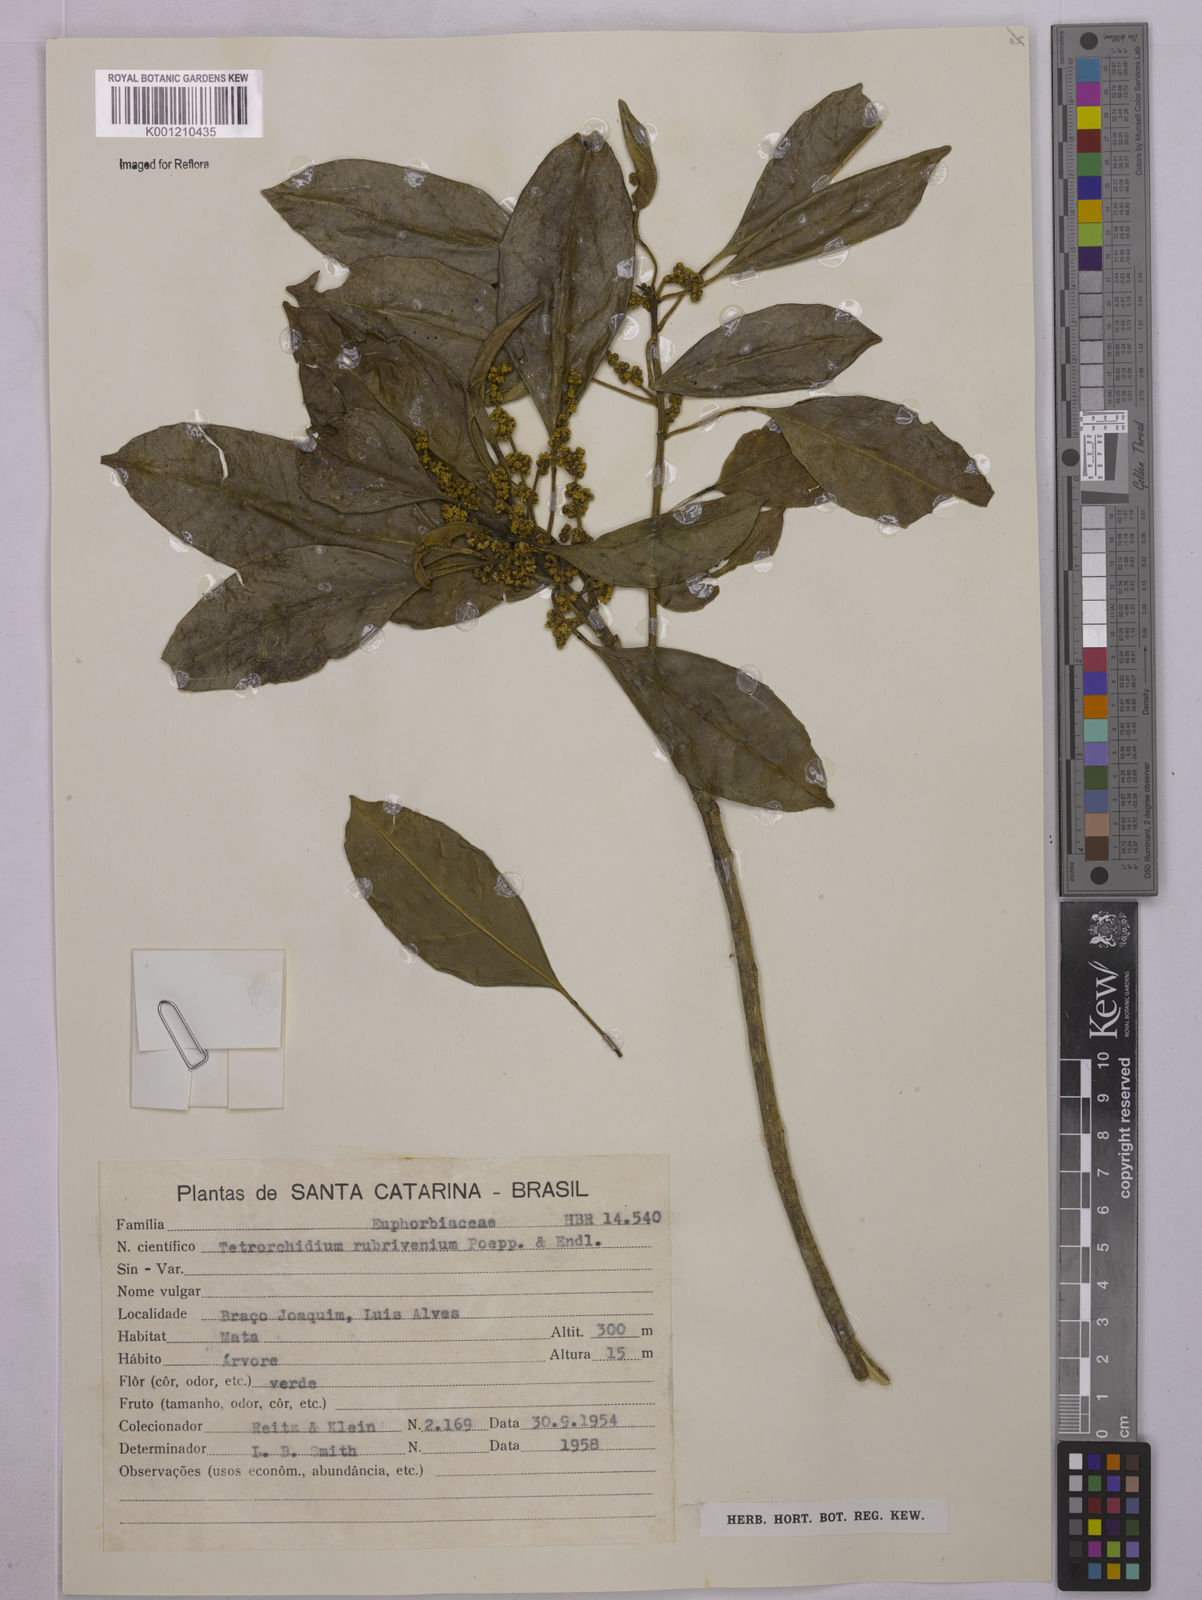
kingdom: Plantae
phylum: Tracheophyta
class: Magnoliopsida
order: Malpighiales
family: Euphorbiaceae
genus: Tetrorchidium
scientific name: Tetrorchidium rubrivenium
